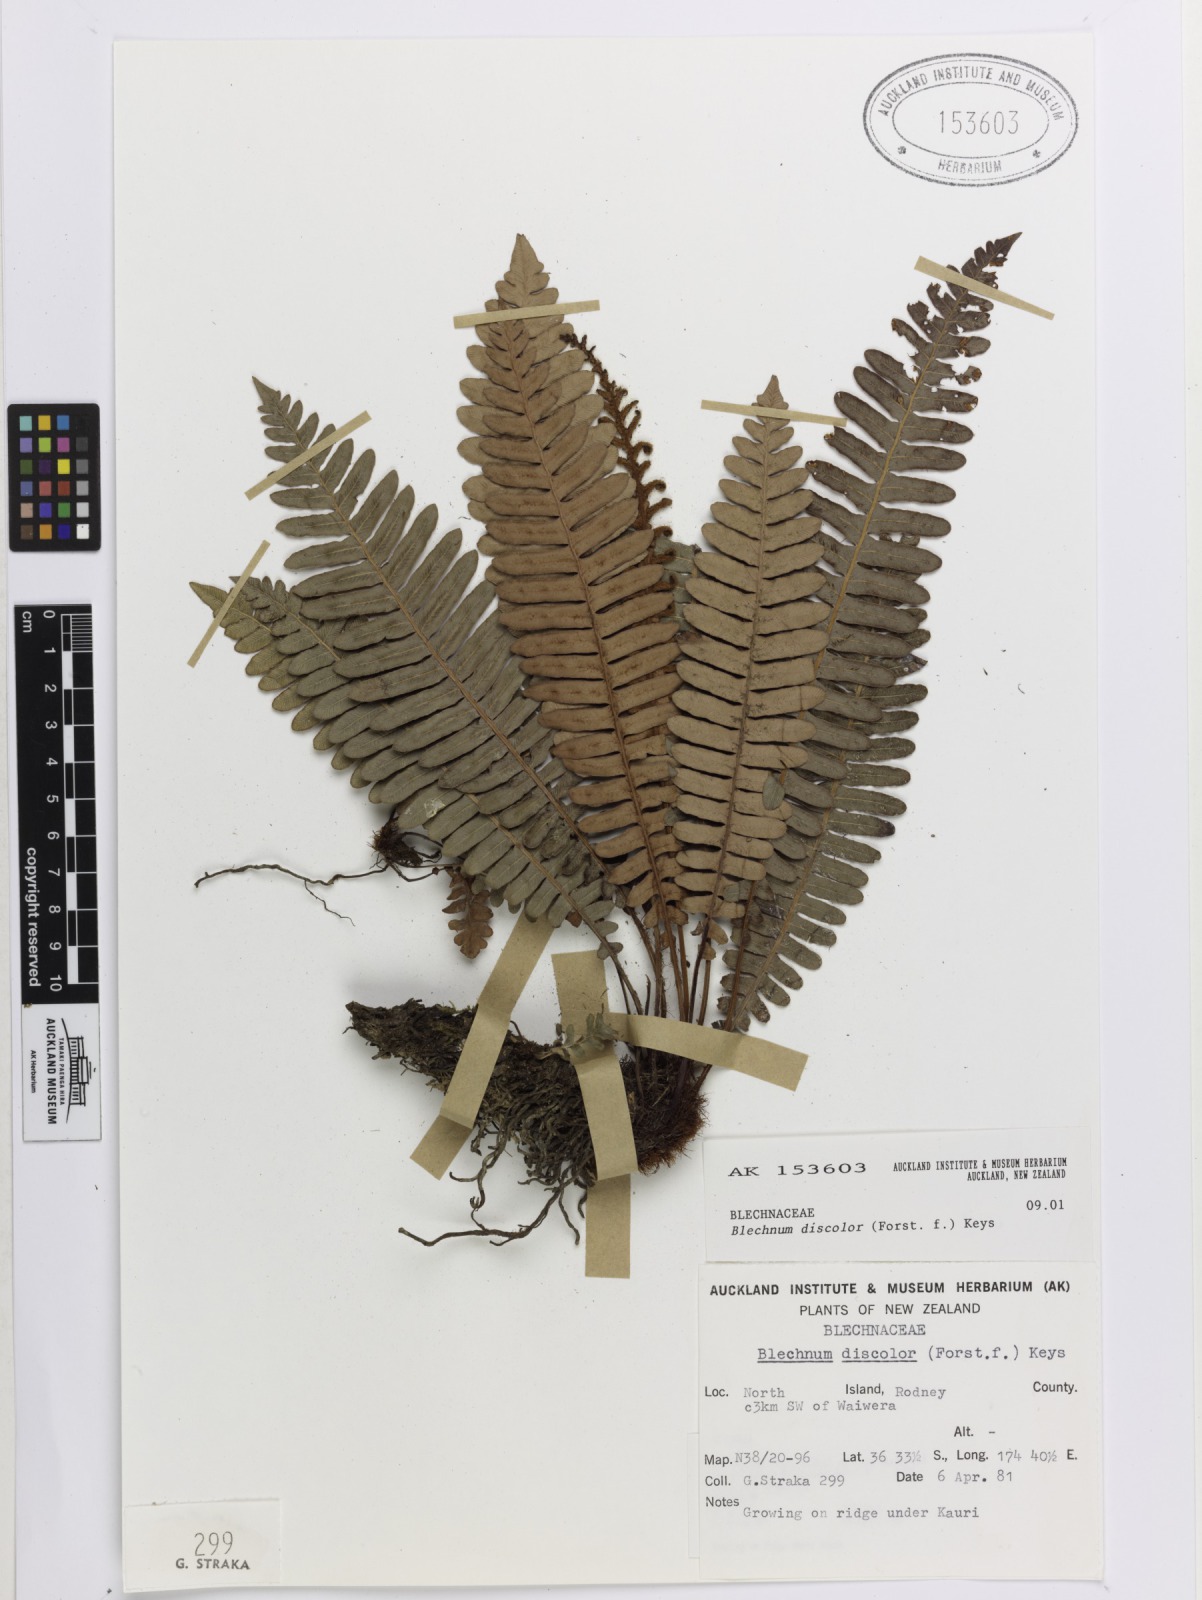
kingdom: Plantae
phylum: Tracheophyta
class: Polypodiopsida
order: Polypodiales
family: Blechnaceae
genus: Lomaria
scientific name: Lomaria discolor
